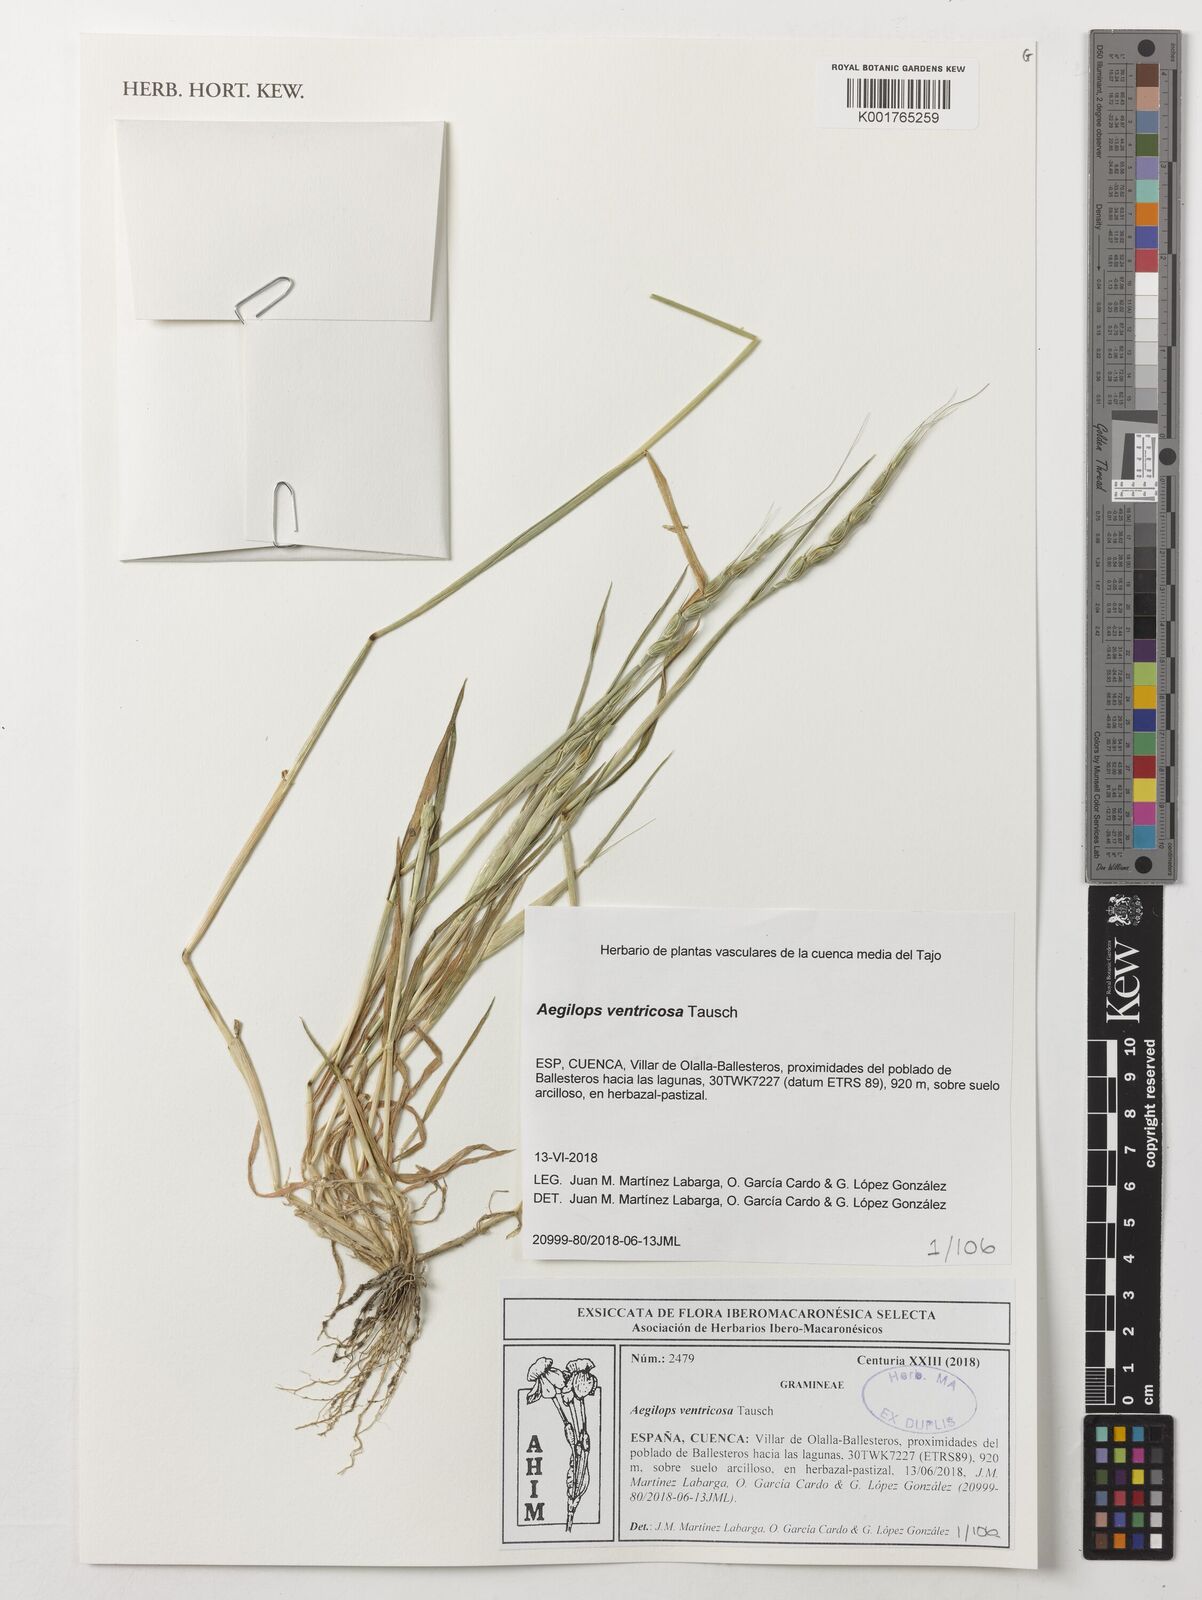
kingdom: Plantae
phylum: Tracheophyta
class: Liliopsida
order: Poales
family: Poaceae
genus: Aegilops
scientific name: Aegilops ventricosa
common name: Swollen goat grass
